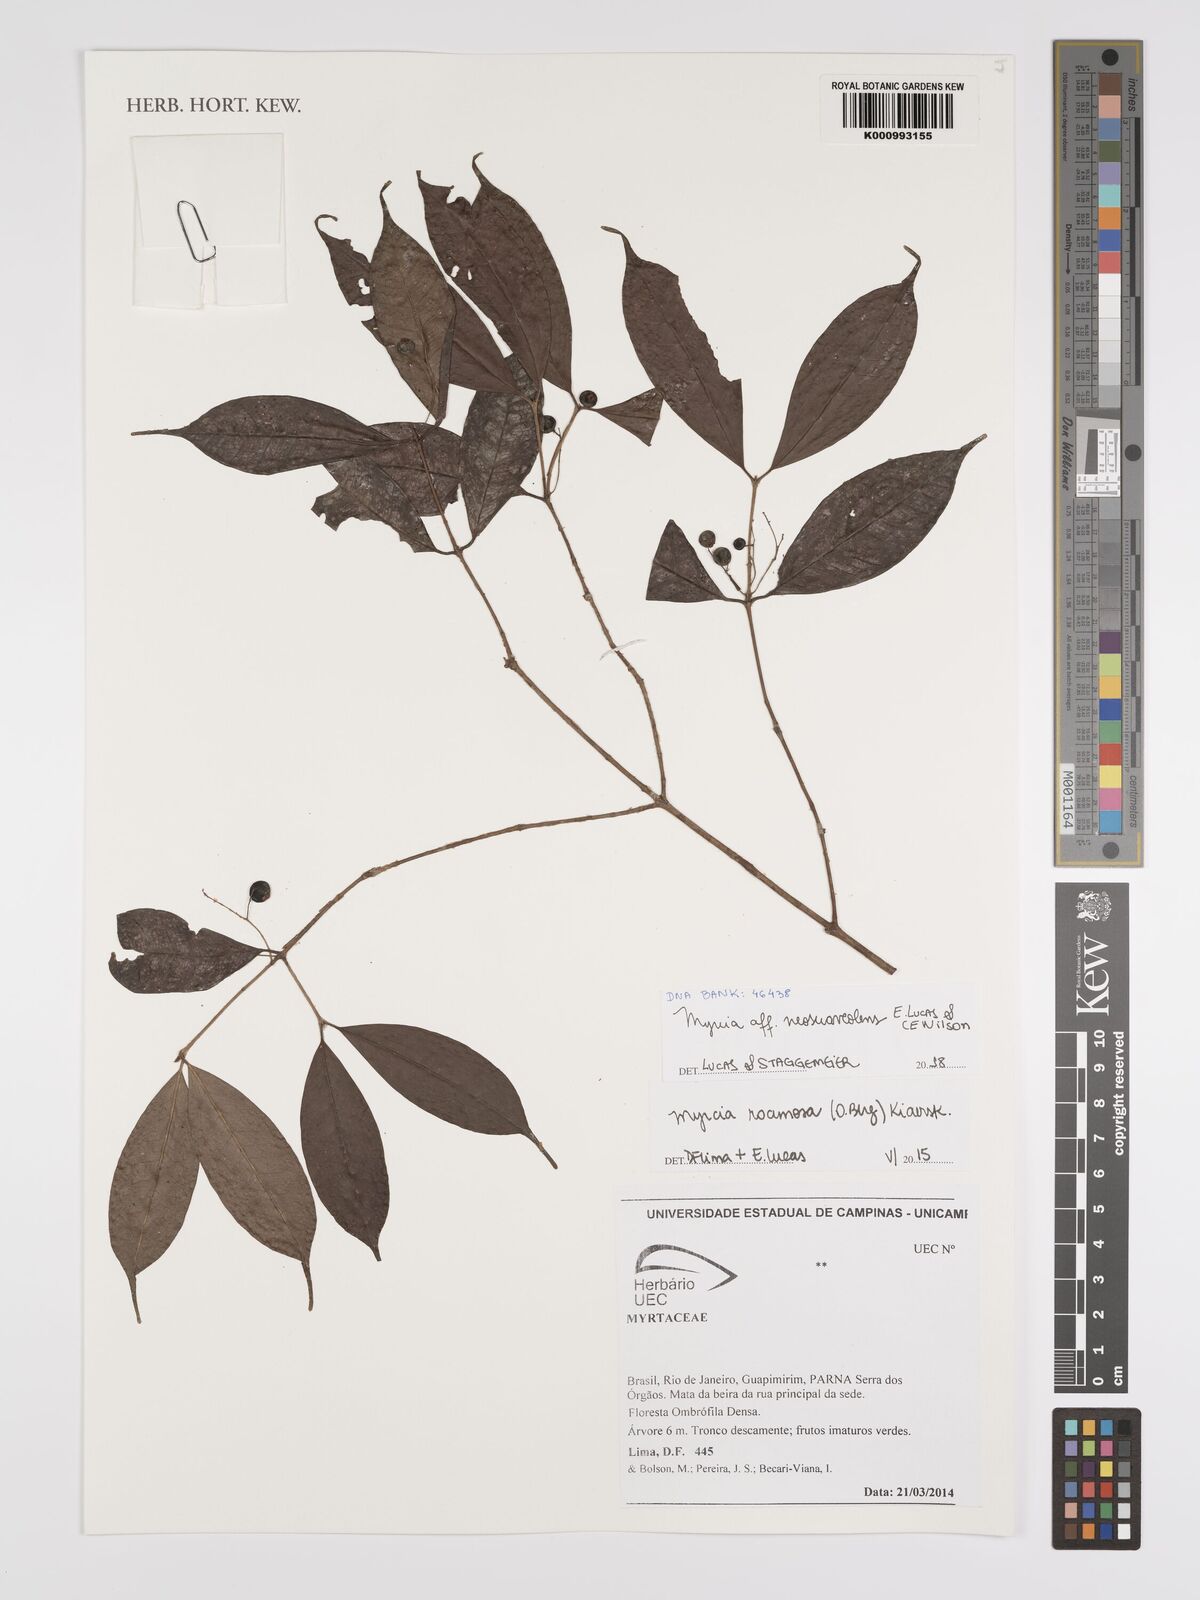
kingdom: Plantae
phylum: Tracheophyta
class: Magnoliopsida
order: Myrtales
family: Myrtaceae
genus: Myrcia
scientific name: Myrcia neosuaveolens
